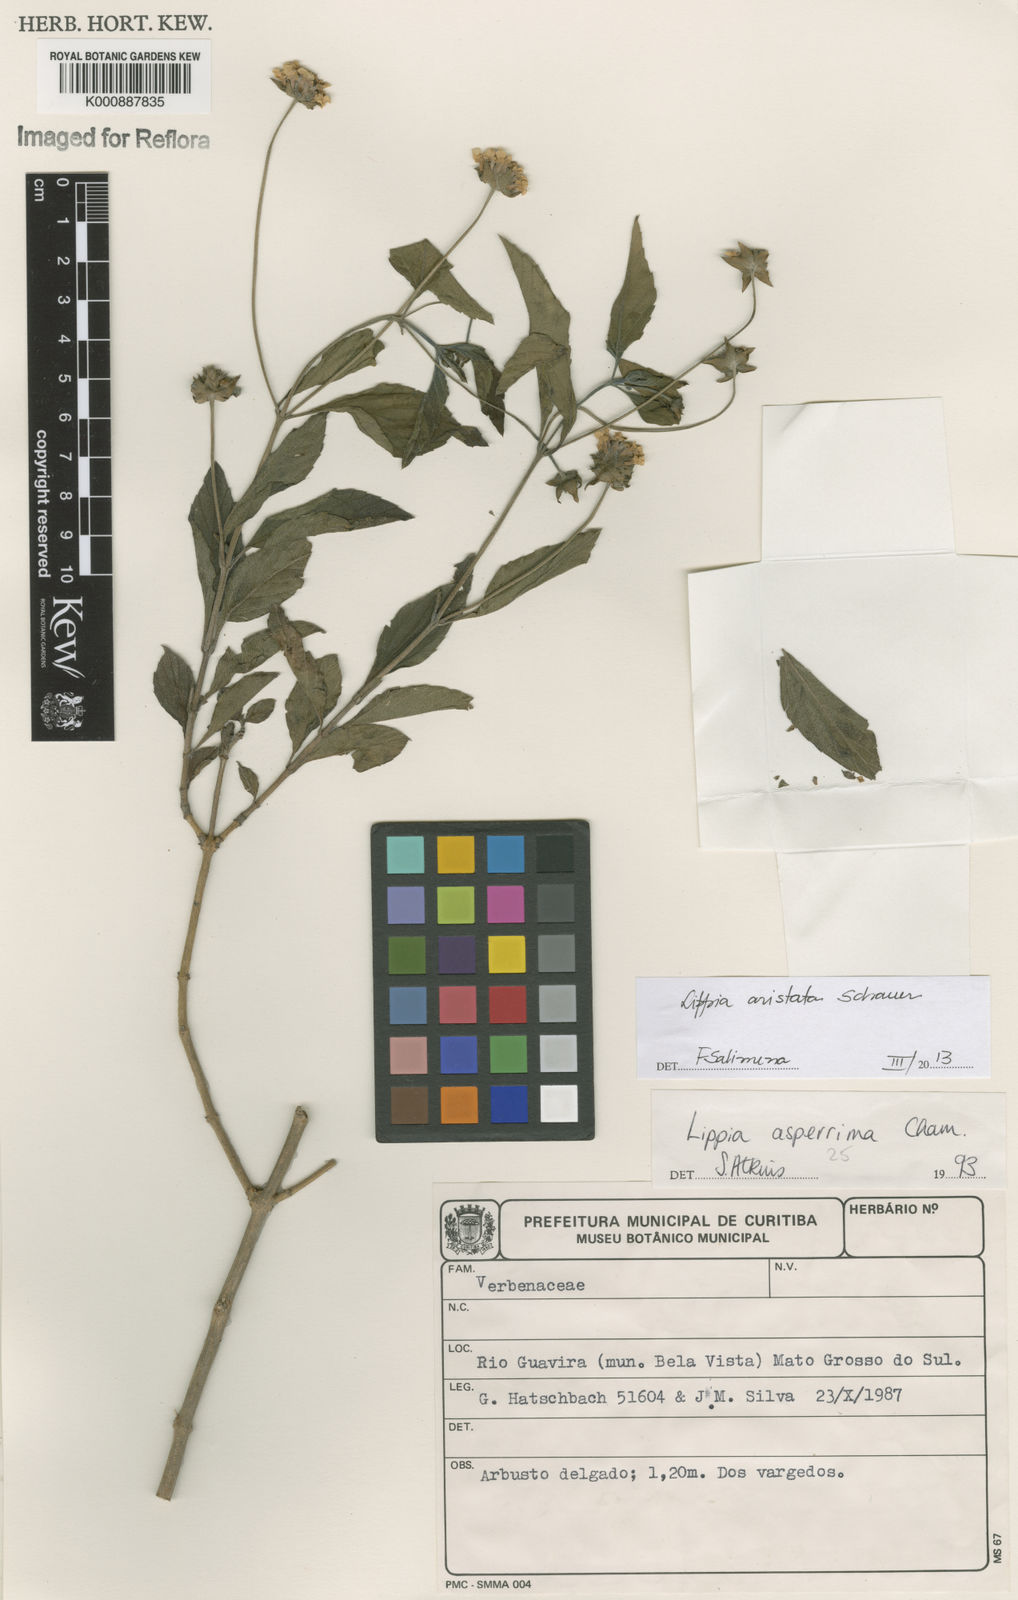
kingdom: Plantae
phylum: Tracheophyta
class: Magnoliopsida
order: Lamiales
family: Verbenaceae
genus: Lippia
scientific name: Lippia aristata
